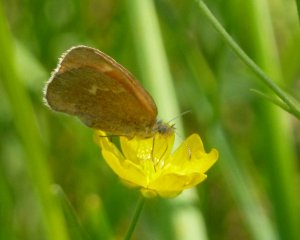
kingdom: Animalia
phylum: Arthropoda
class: Insecta
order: Lepidoptera
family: Nymphalidae
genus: Coenonympha
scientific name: Coenonympha tullia
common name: Large Heath
